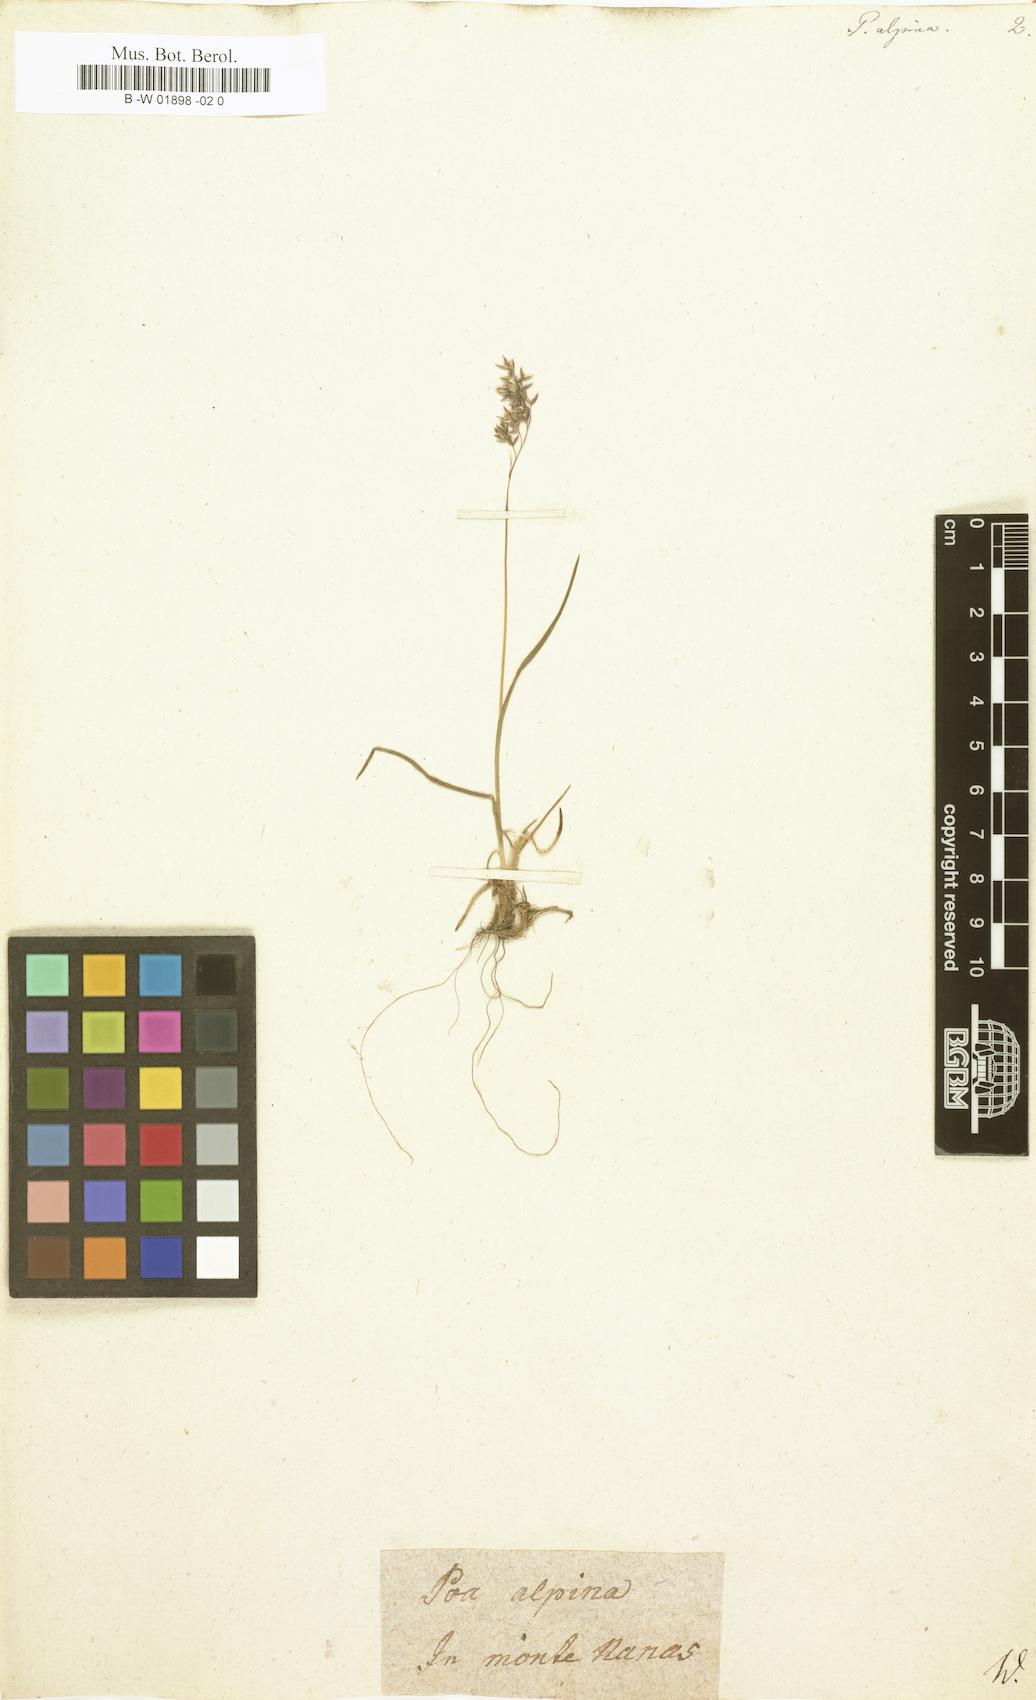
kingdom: Plantae
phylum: Tracheophyta
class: Liliopsida
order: Poales
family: Poaceae
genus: Poa
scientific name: Poa alpina
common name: Alpine bluegrass
